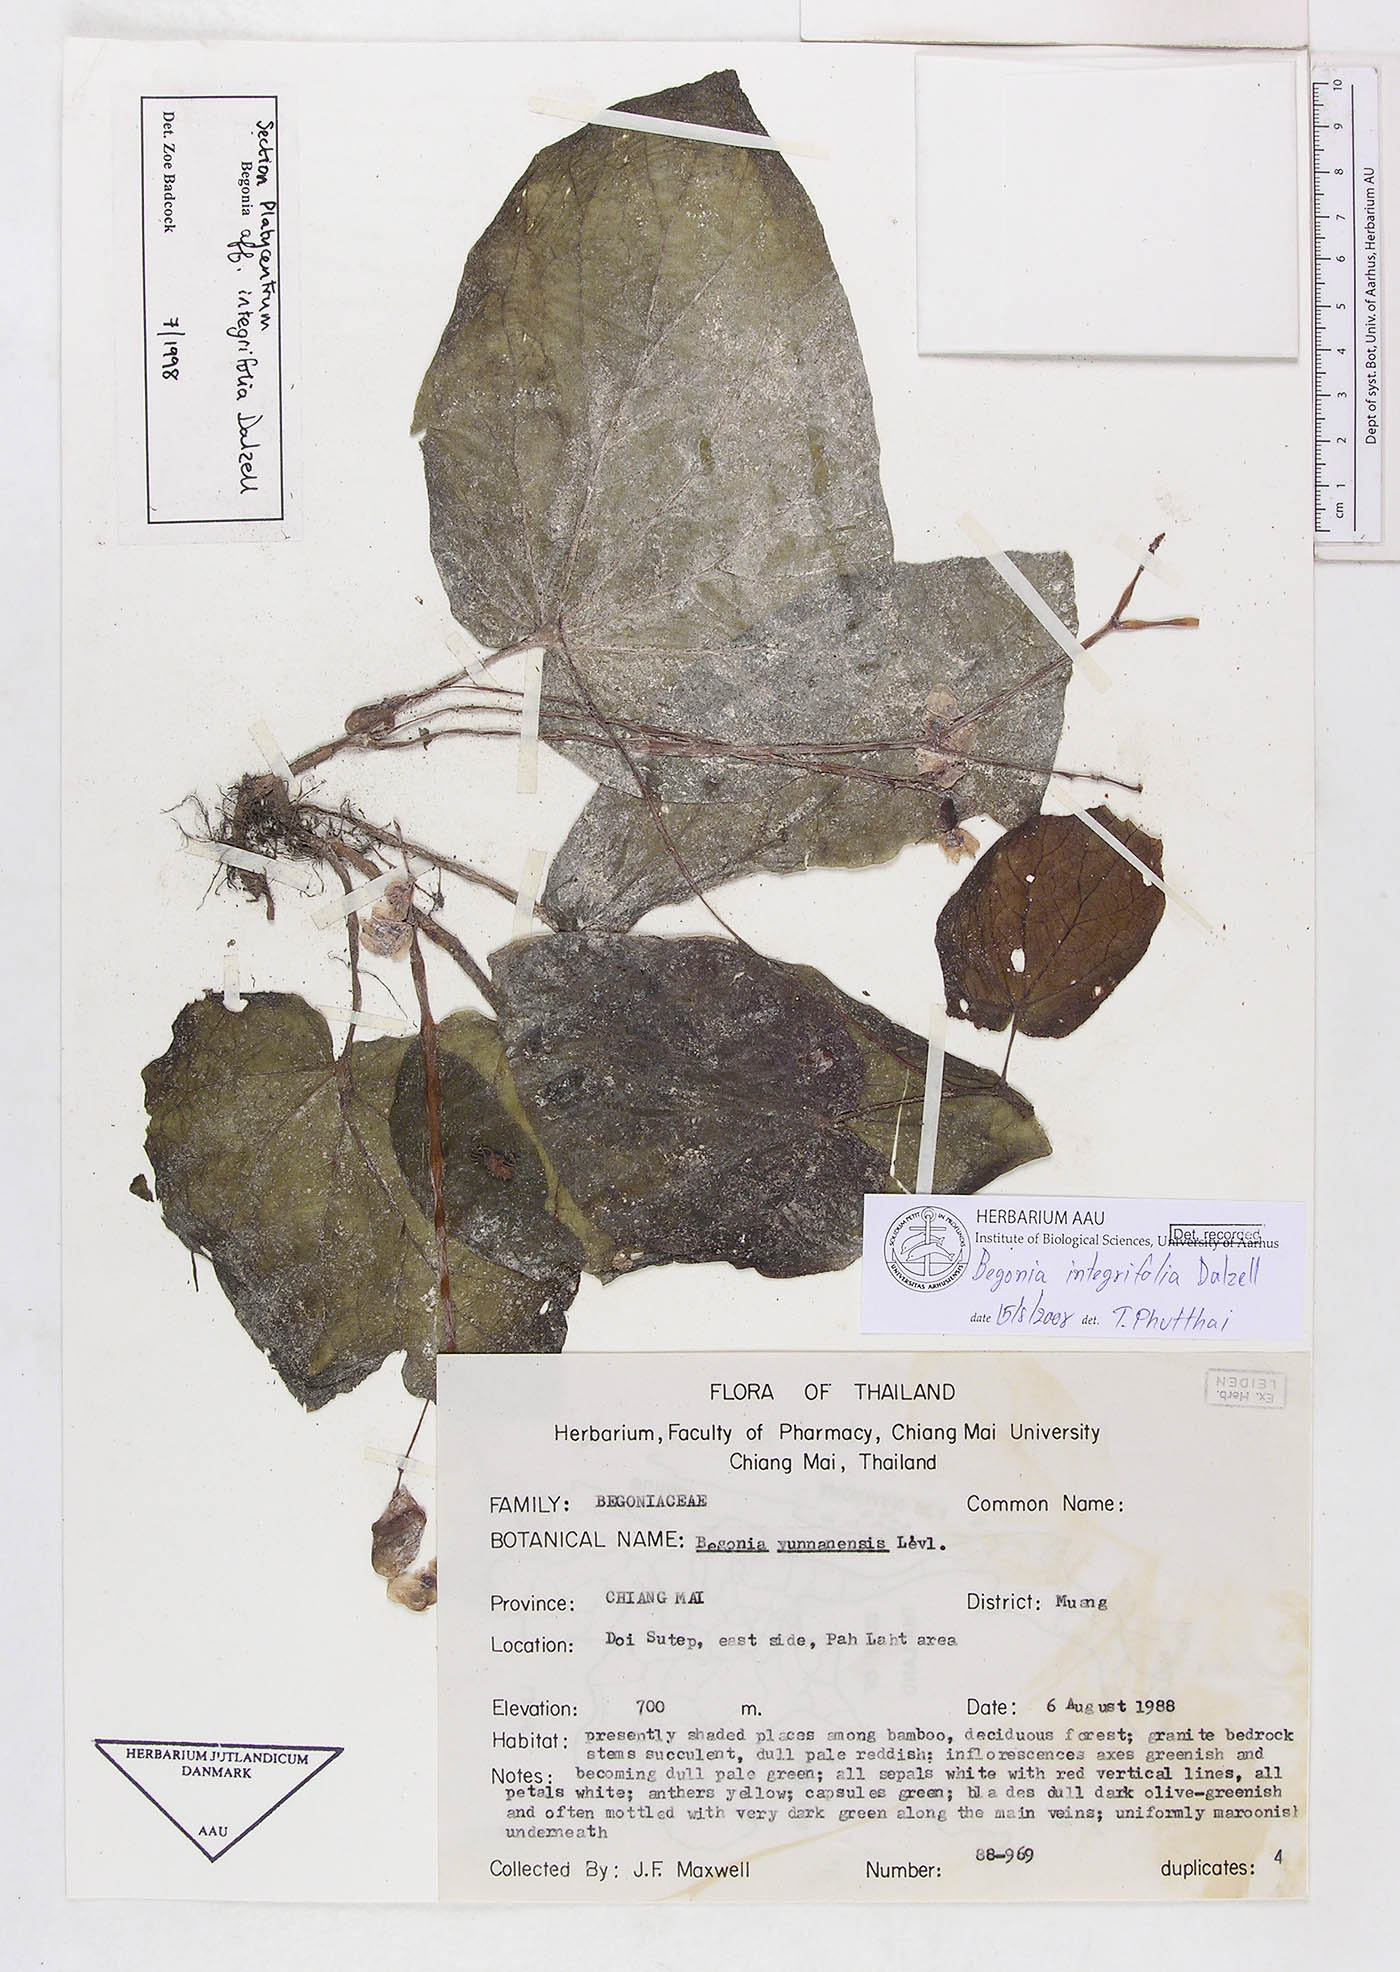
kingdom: Plantae
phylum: Tracheophyta
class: Magnoliopsida
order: Cucurbitales
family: Begoniaceae
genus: Begonia
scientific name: Begonia integrifolia
